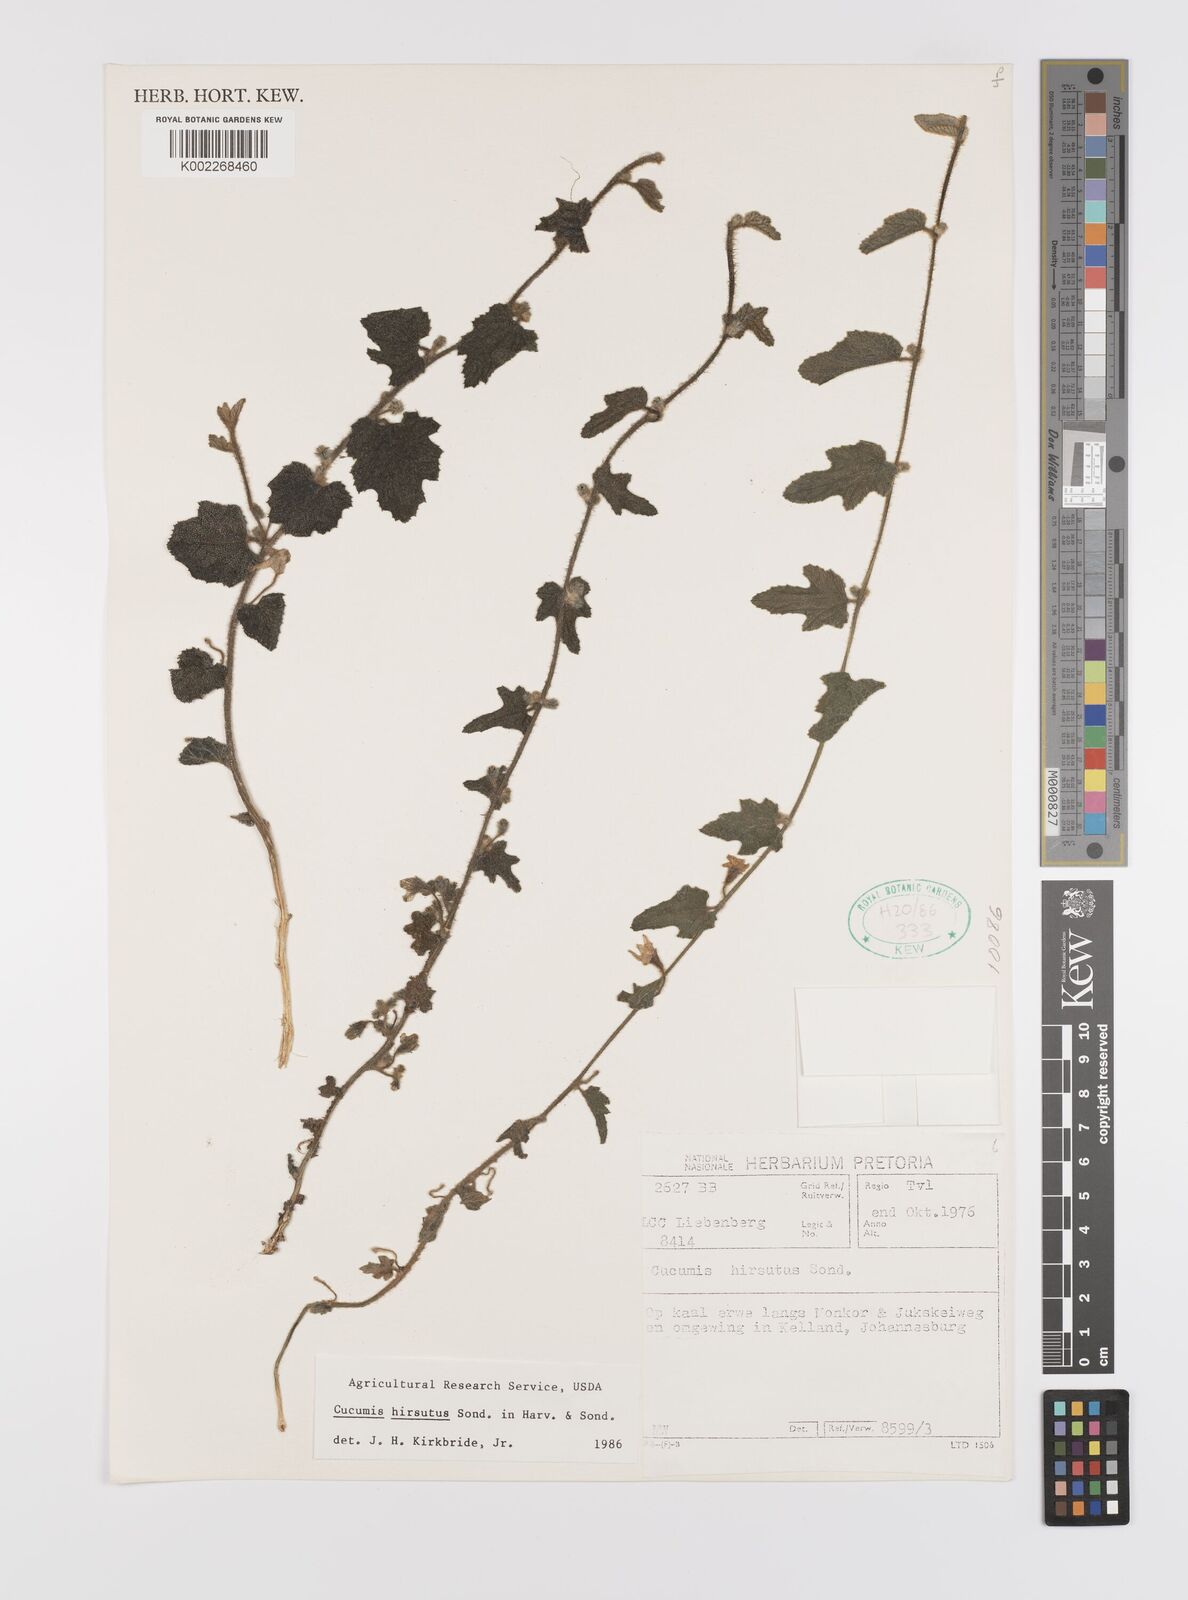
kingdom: Plantae
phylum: Tracheophyta
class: Magnoliopsida
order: Cucurbitales
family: Cucurbitaceae
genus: Cucumis
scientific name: Cucumis hirsutus
